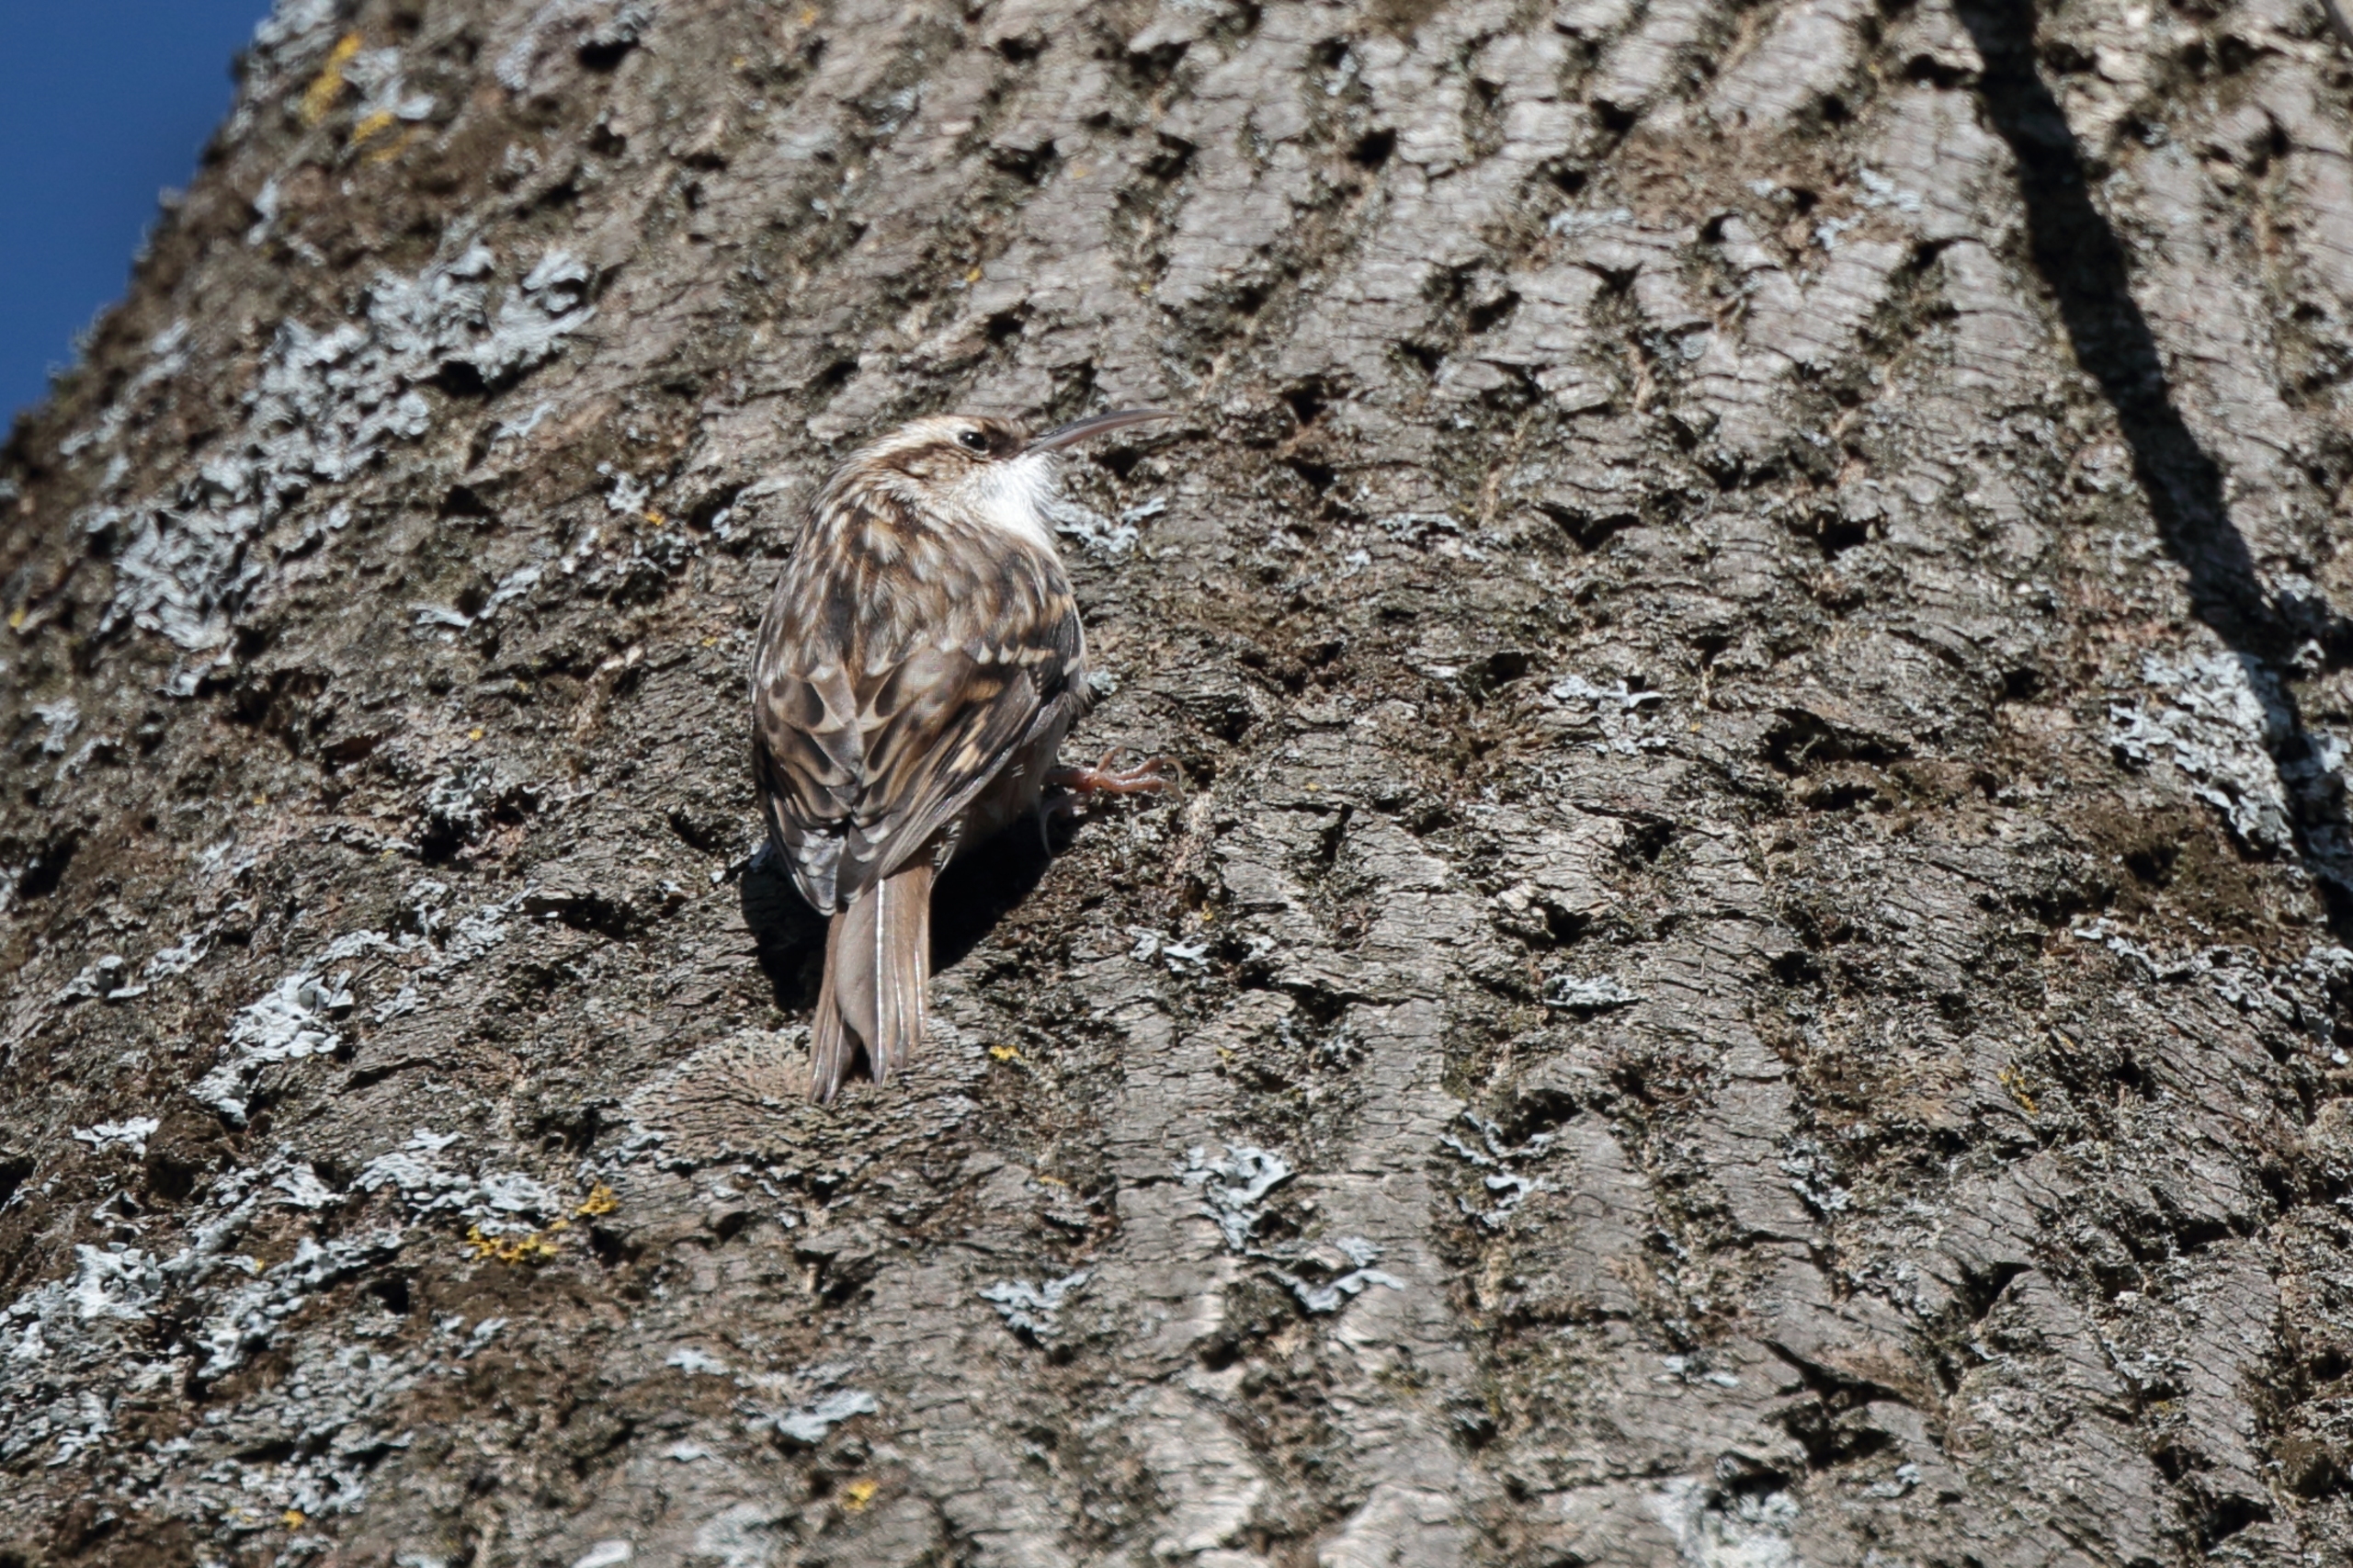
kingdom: Animalia
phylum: Chordata
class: Aves
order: Passeriformes
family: Certhiidae
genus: Certhia
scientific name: Certhia brachydactyla
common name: Korttået træløber
